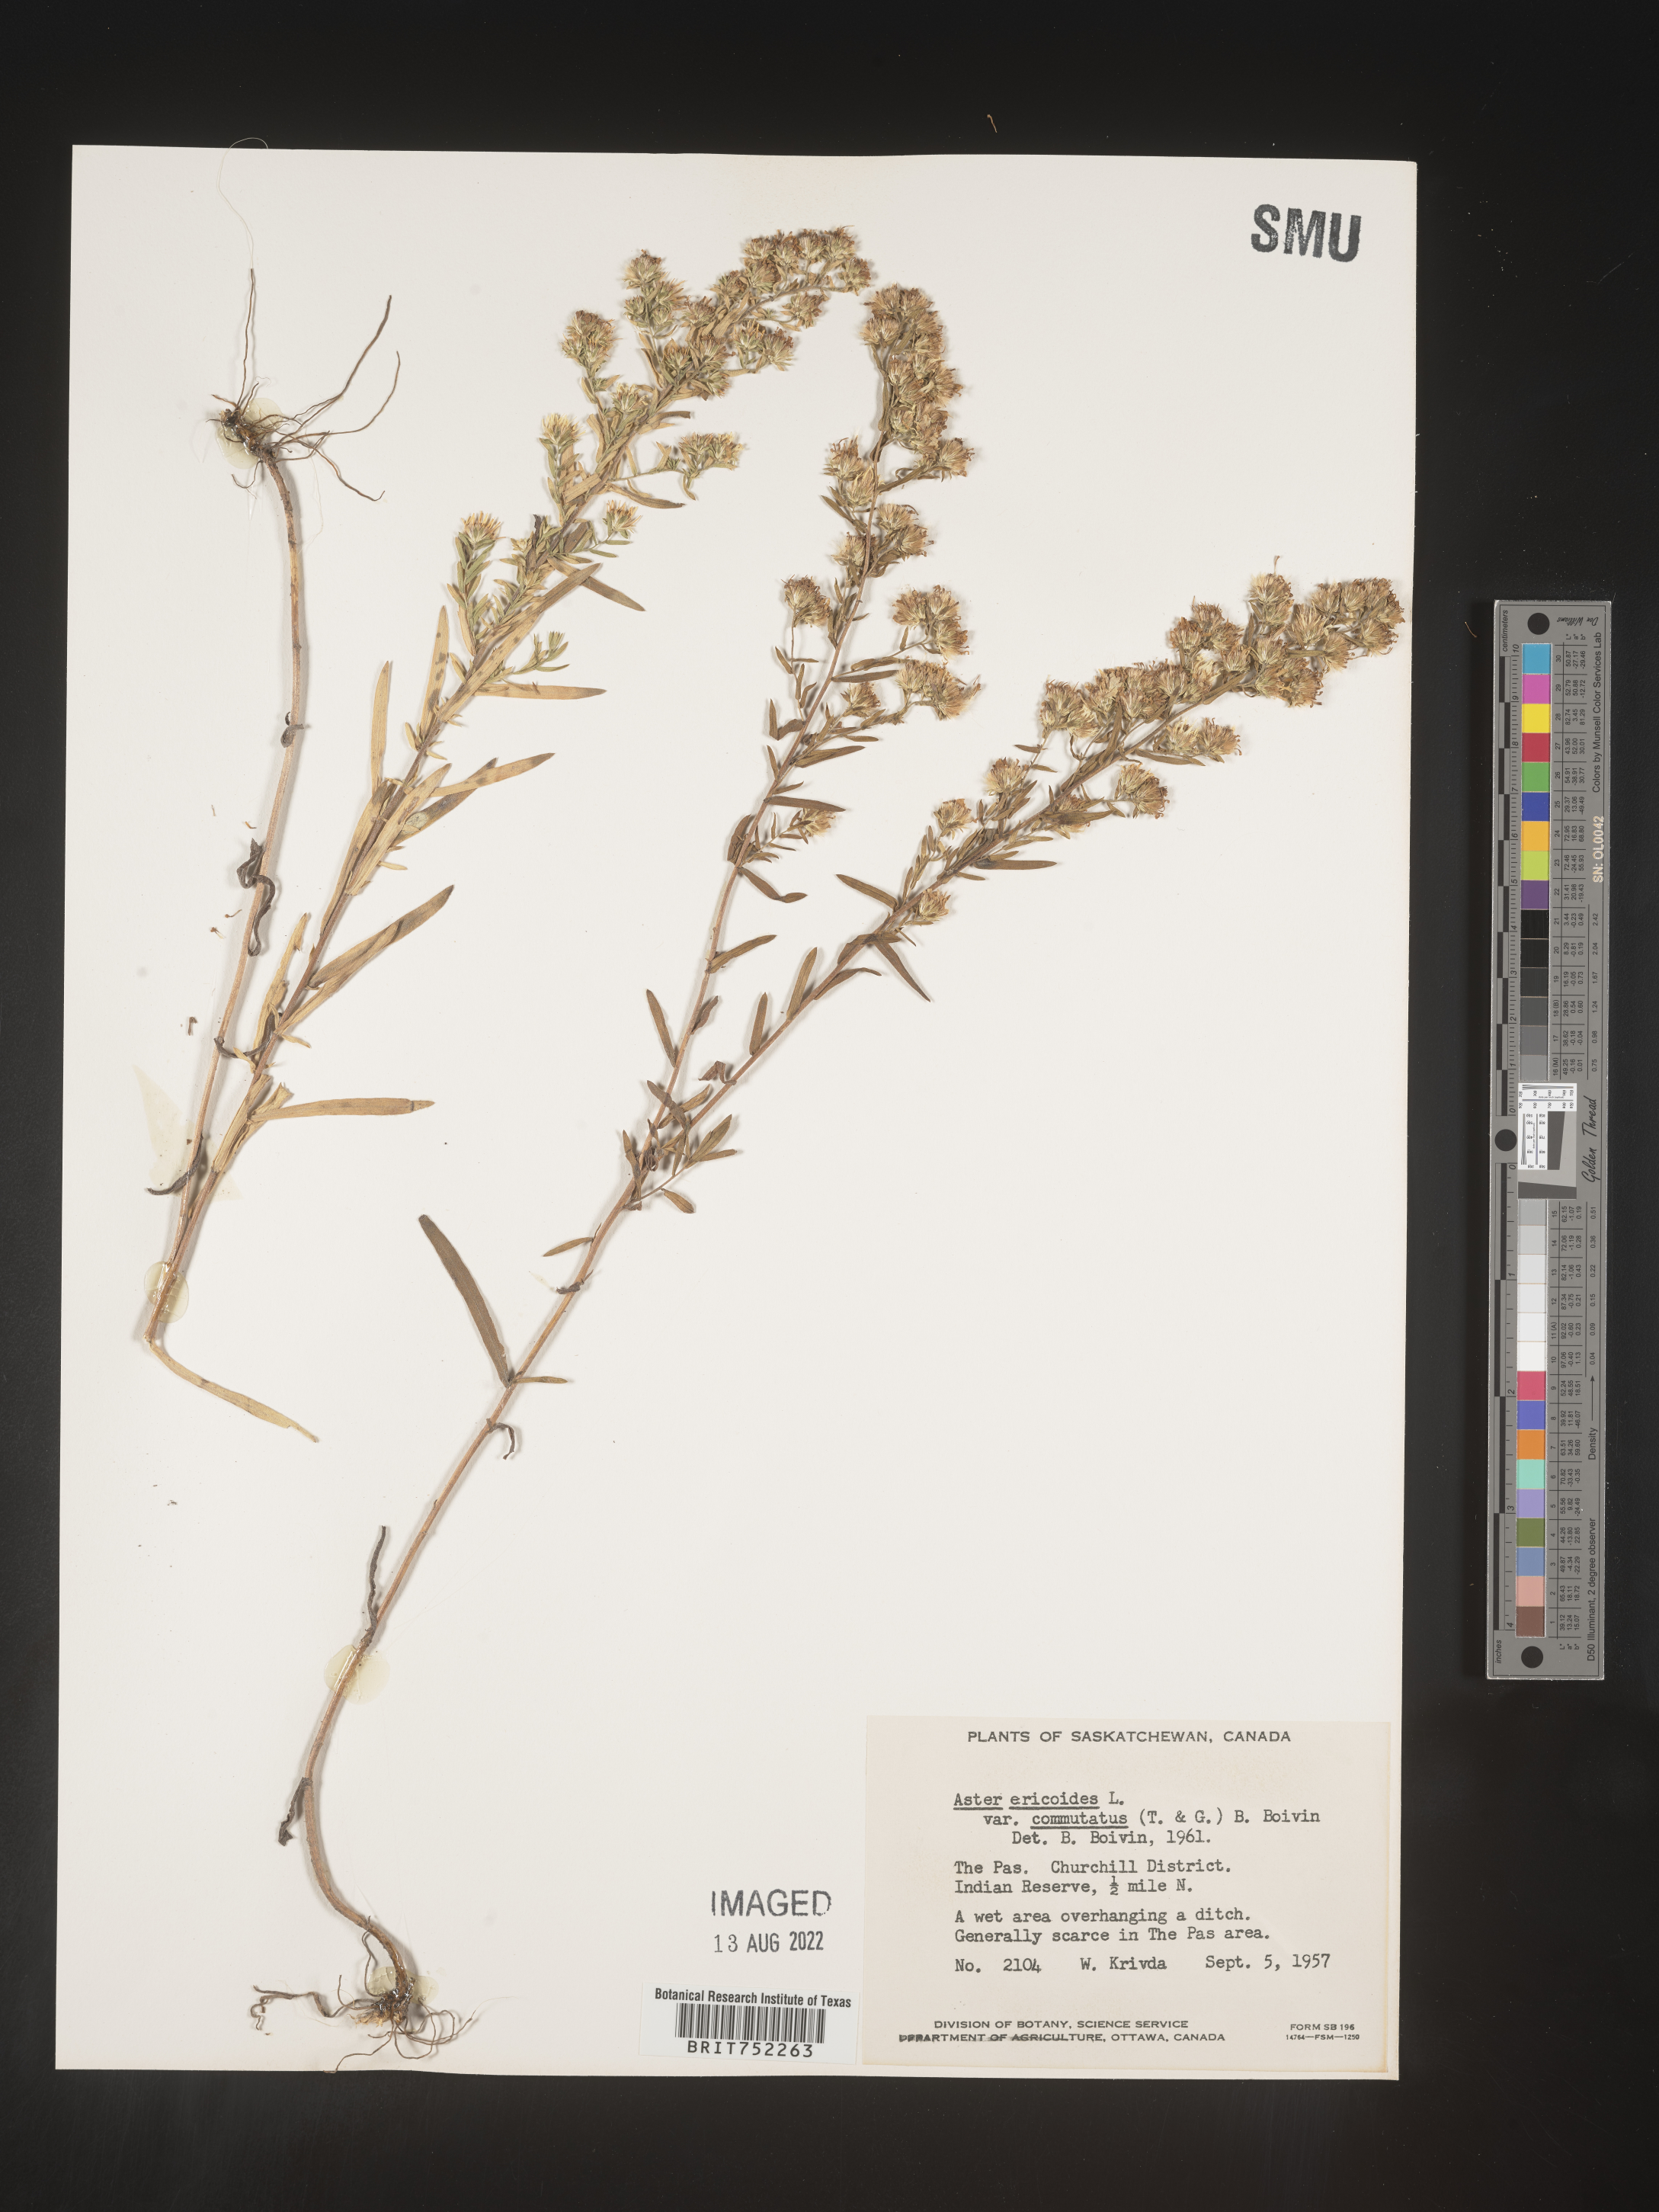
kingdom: Plantae
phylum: Tracheophyta
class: Magnoliopsida
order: Asterales
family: Asteraceae
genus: Symphyotrichum
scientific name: Symphyotrichum ericoides
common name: Heath aster
